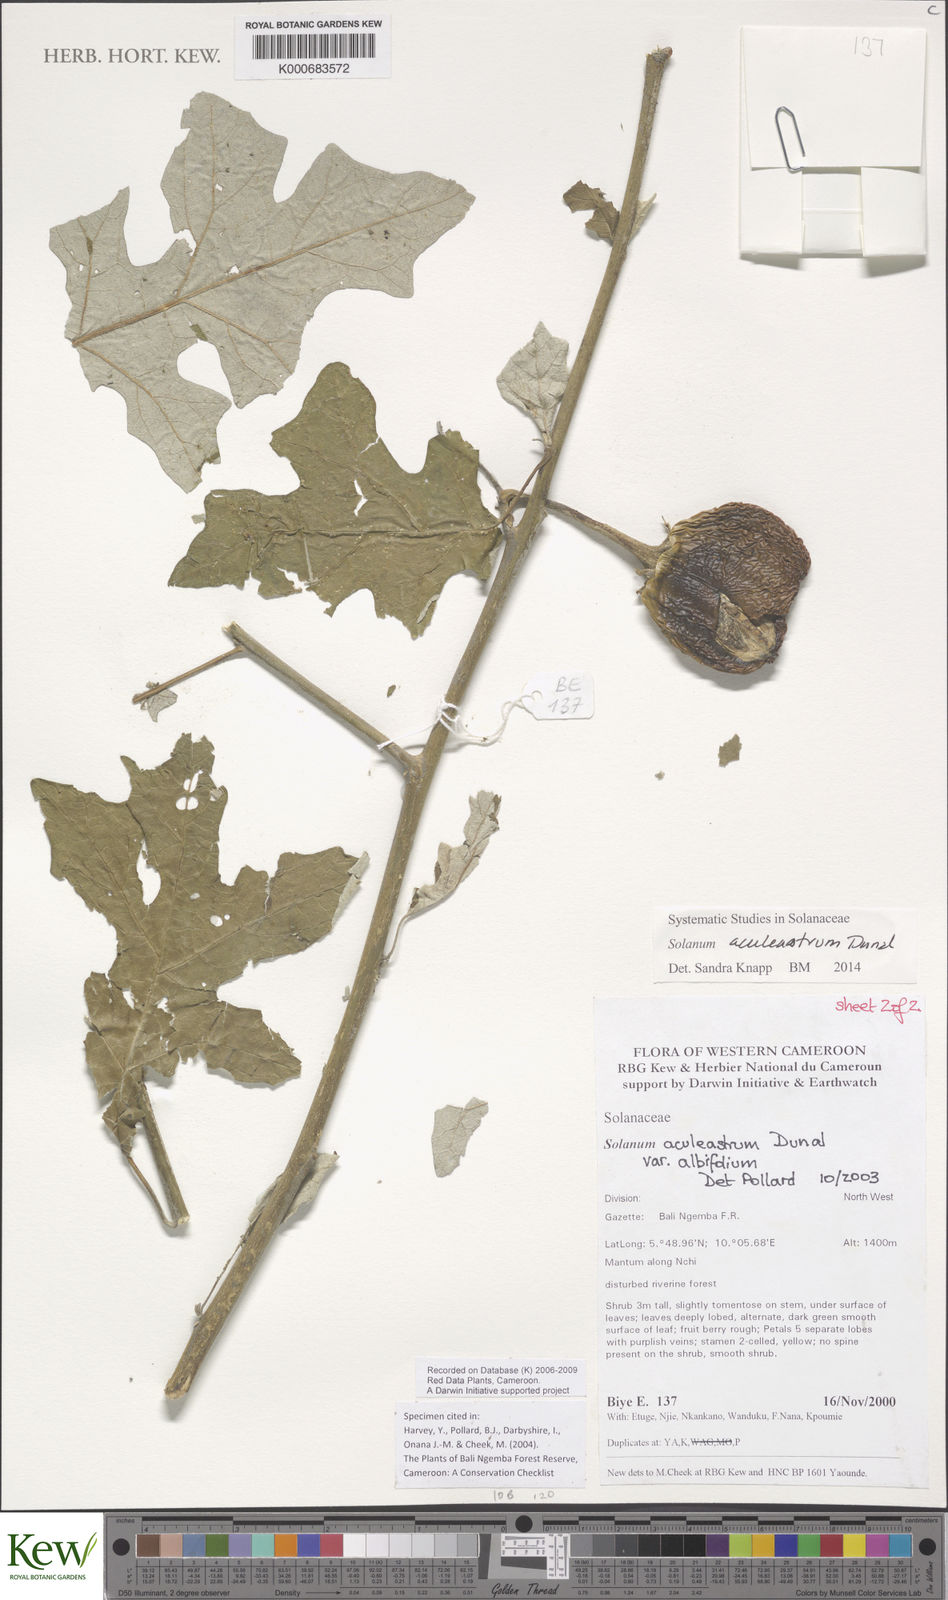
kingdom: Plantae
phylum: Tracheophyta
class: Magnoliopsida
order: Solanales
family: Solanaceae
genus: Solanum
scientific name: Solanum aculeastrum
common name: Goat bitter-apple
